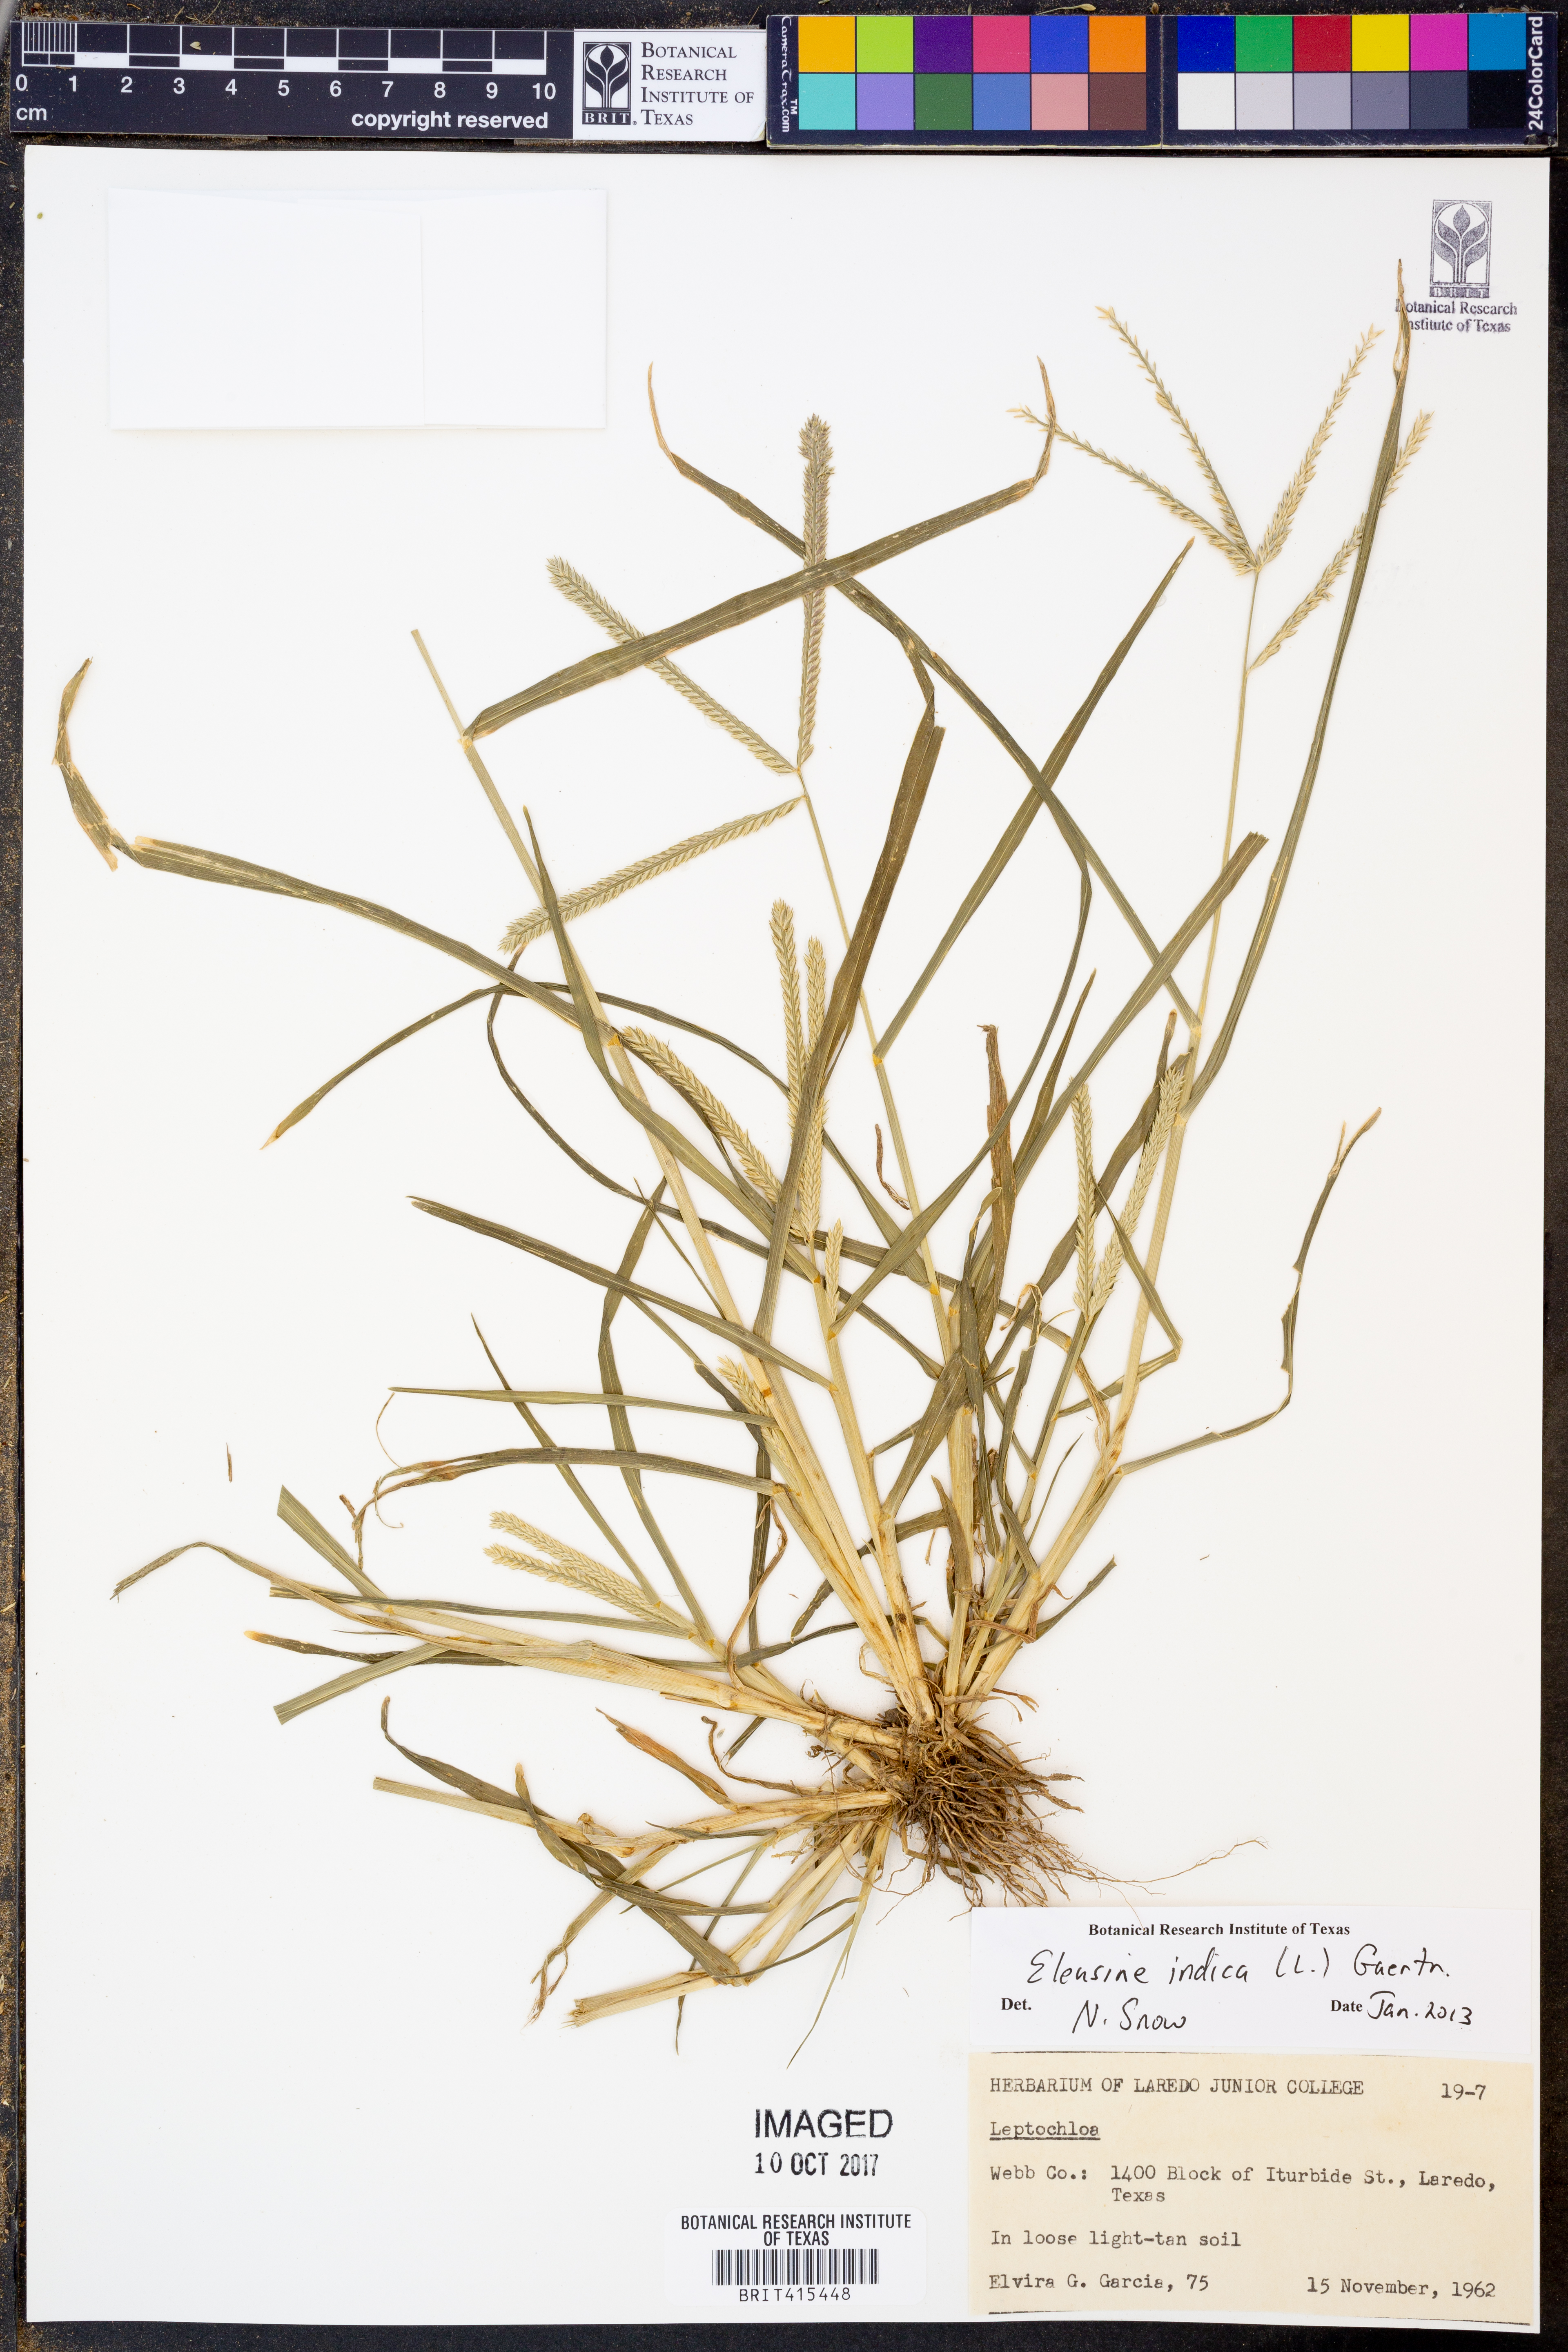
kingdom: Plantae
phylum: Tracheophyta
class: Liliopsida
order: Poales
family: Poaceae
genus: Eleusine
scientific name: Eleusine indica
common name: Yard-grass
